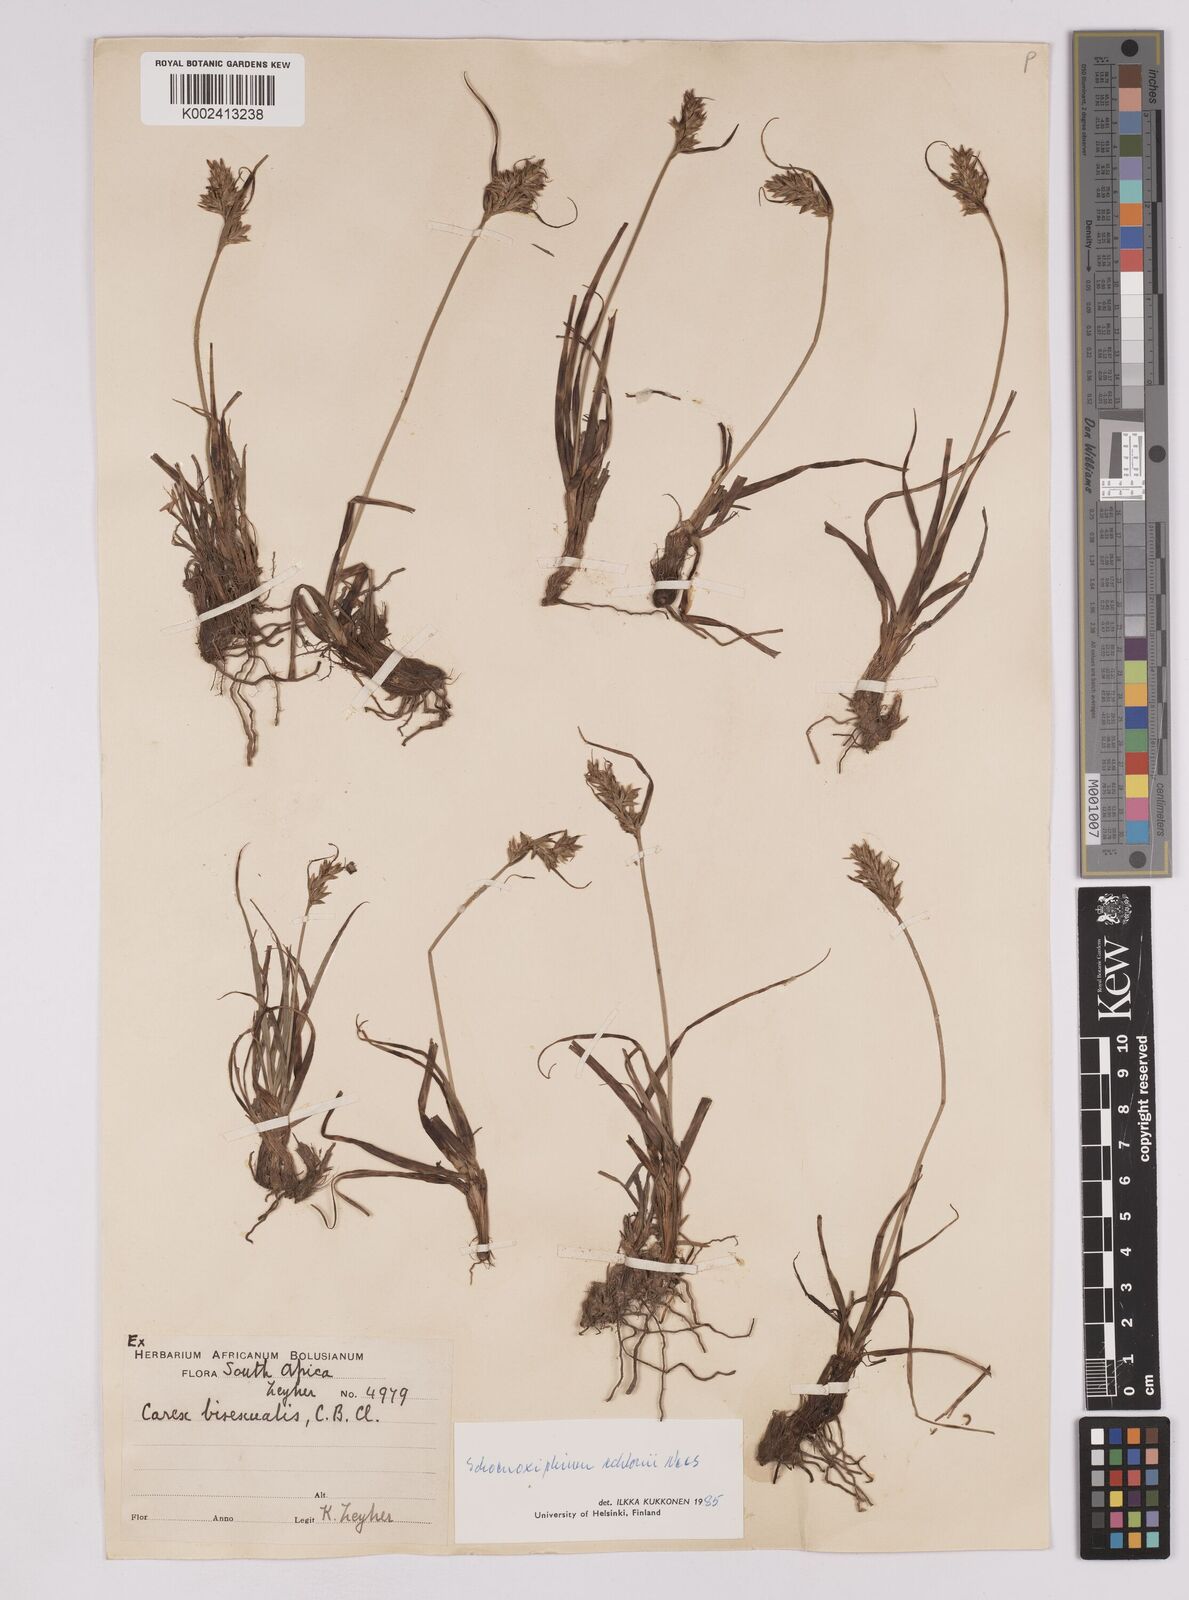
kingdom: Plantae
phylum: Tracheophyta
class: Liliopsida
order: Poales
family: Cyperaceae
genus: Carex
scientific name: Carex capensis
